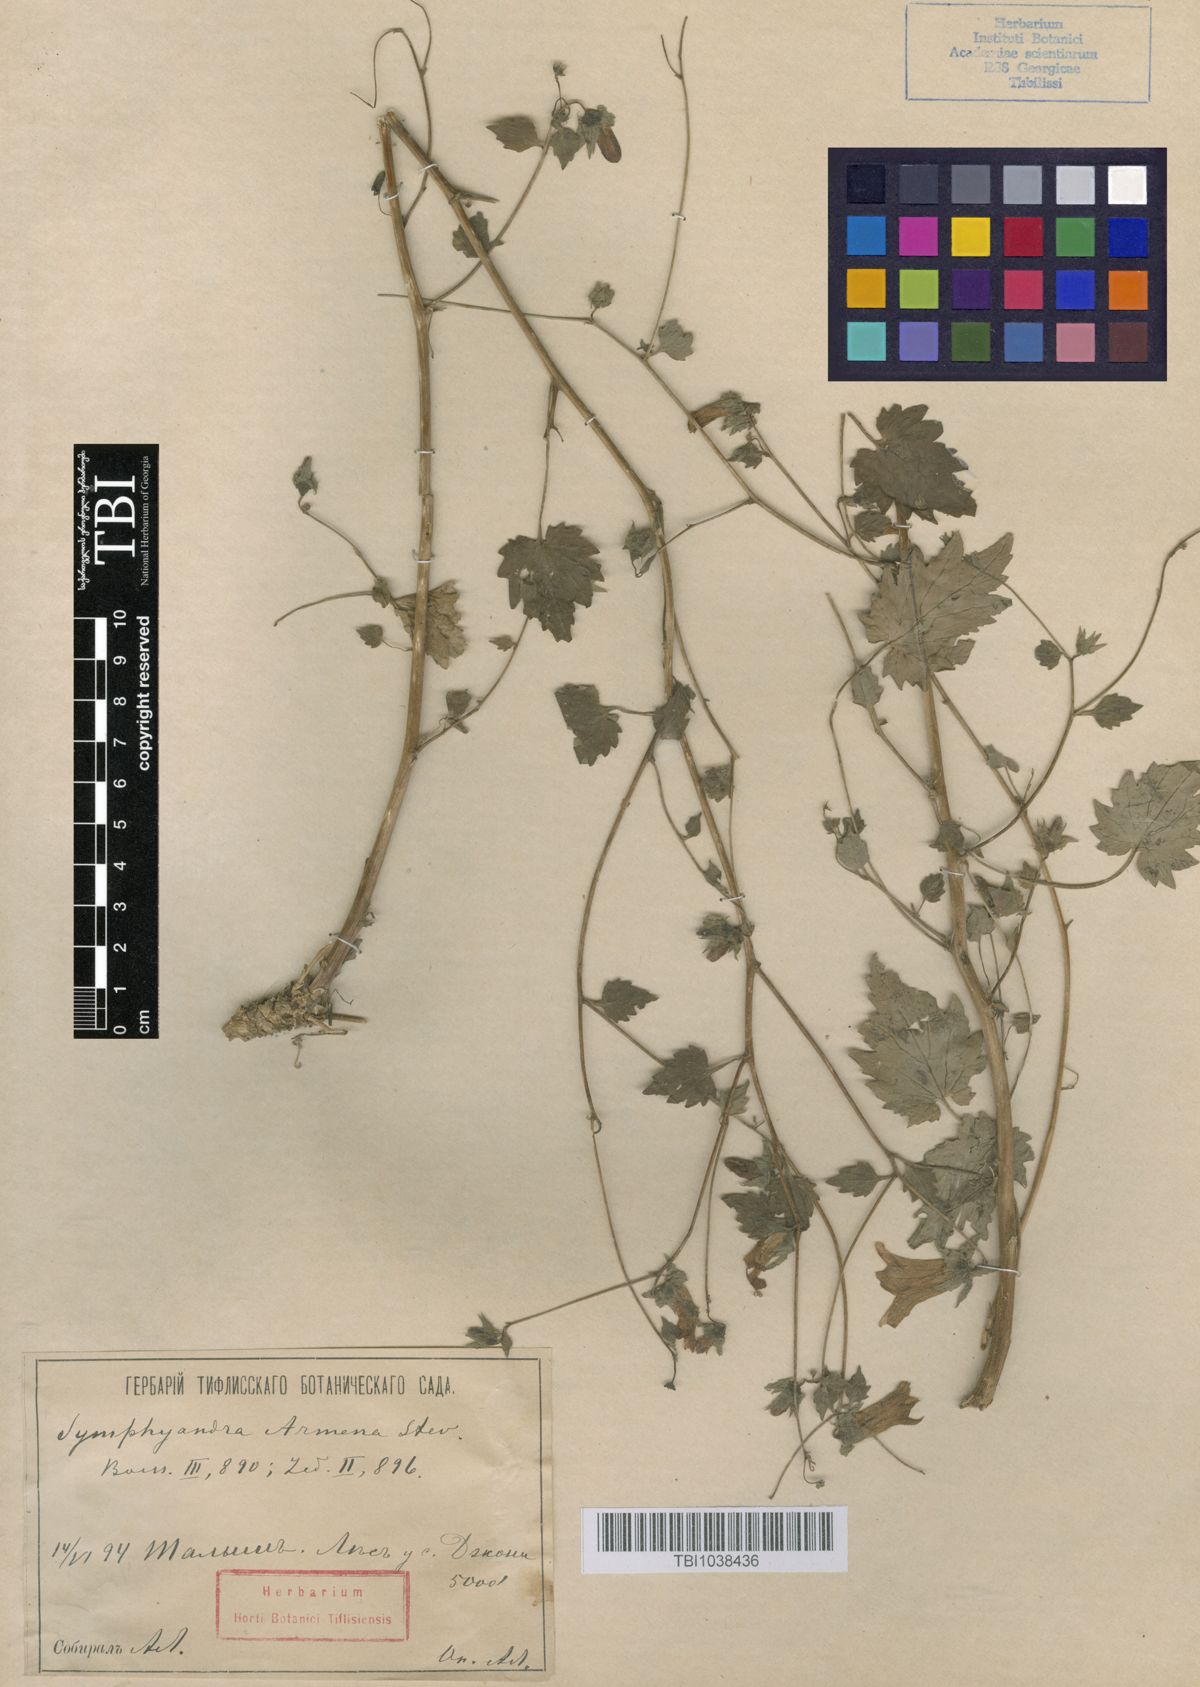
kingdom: Plantae
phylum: Tracheophyta
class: Magnoliopsida
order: Asterales
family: Campanulaceae
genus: Campanula
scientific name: Campanula armena
